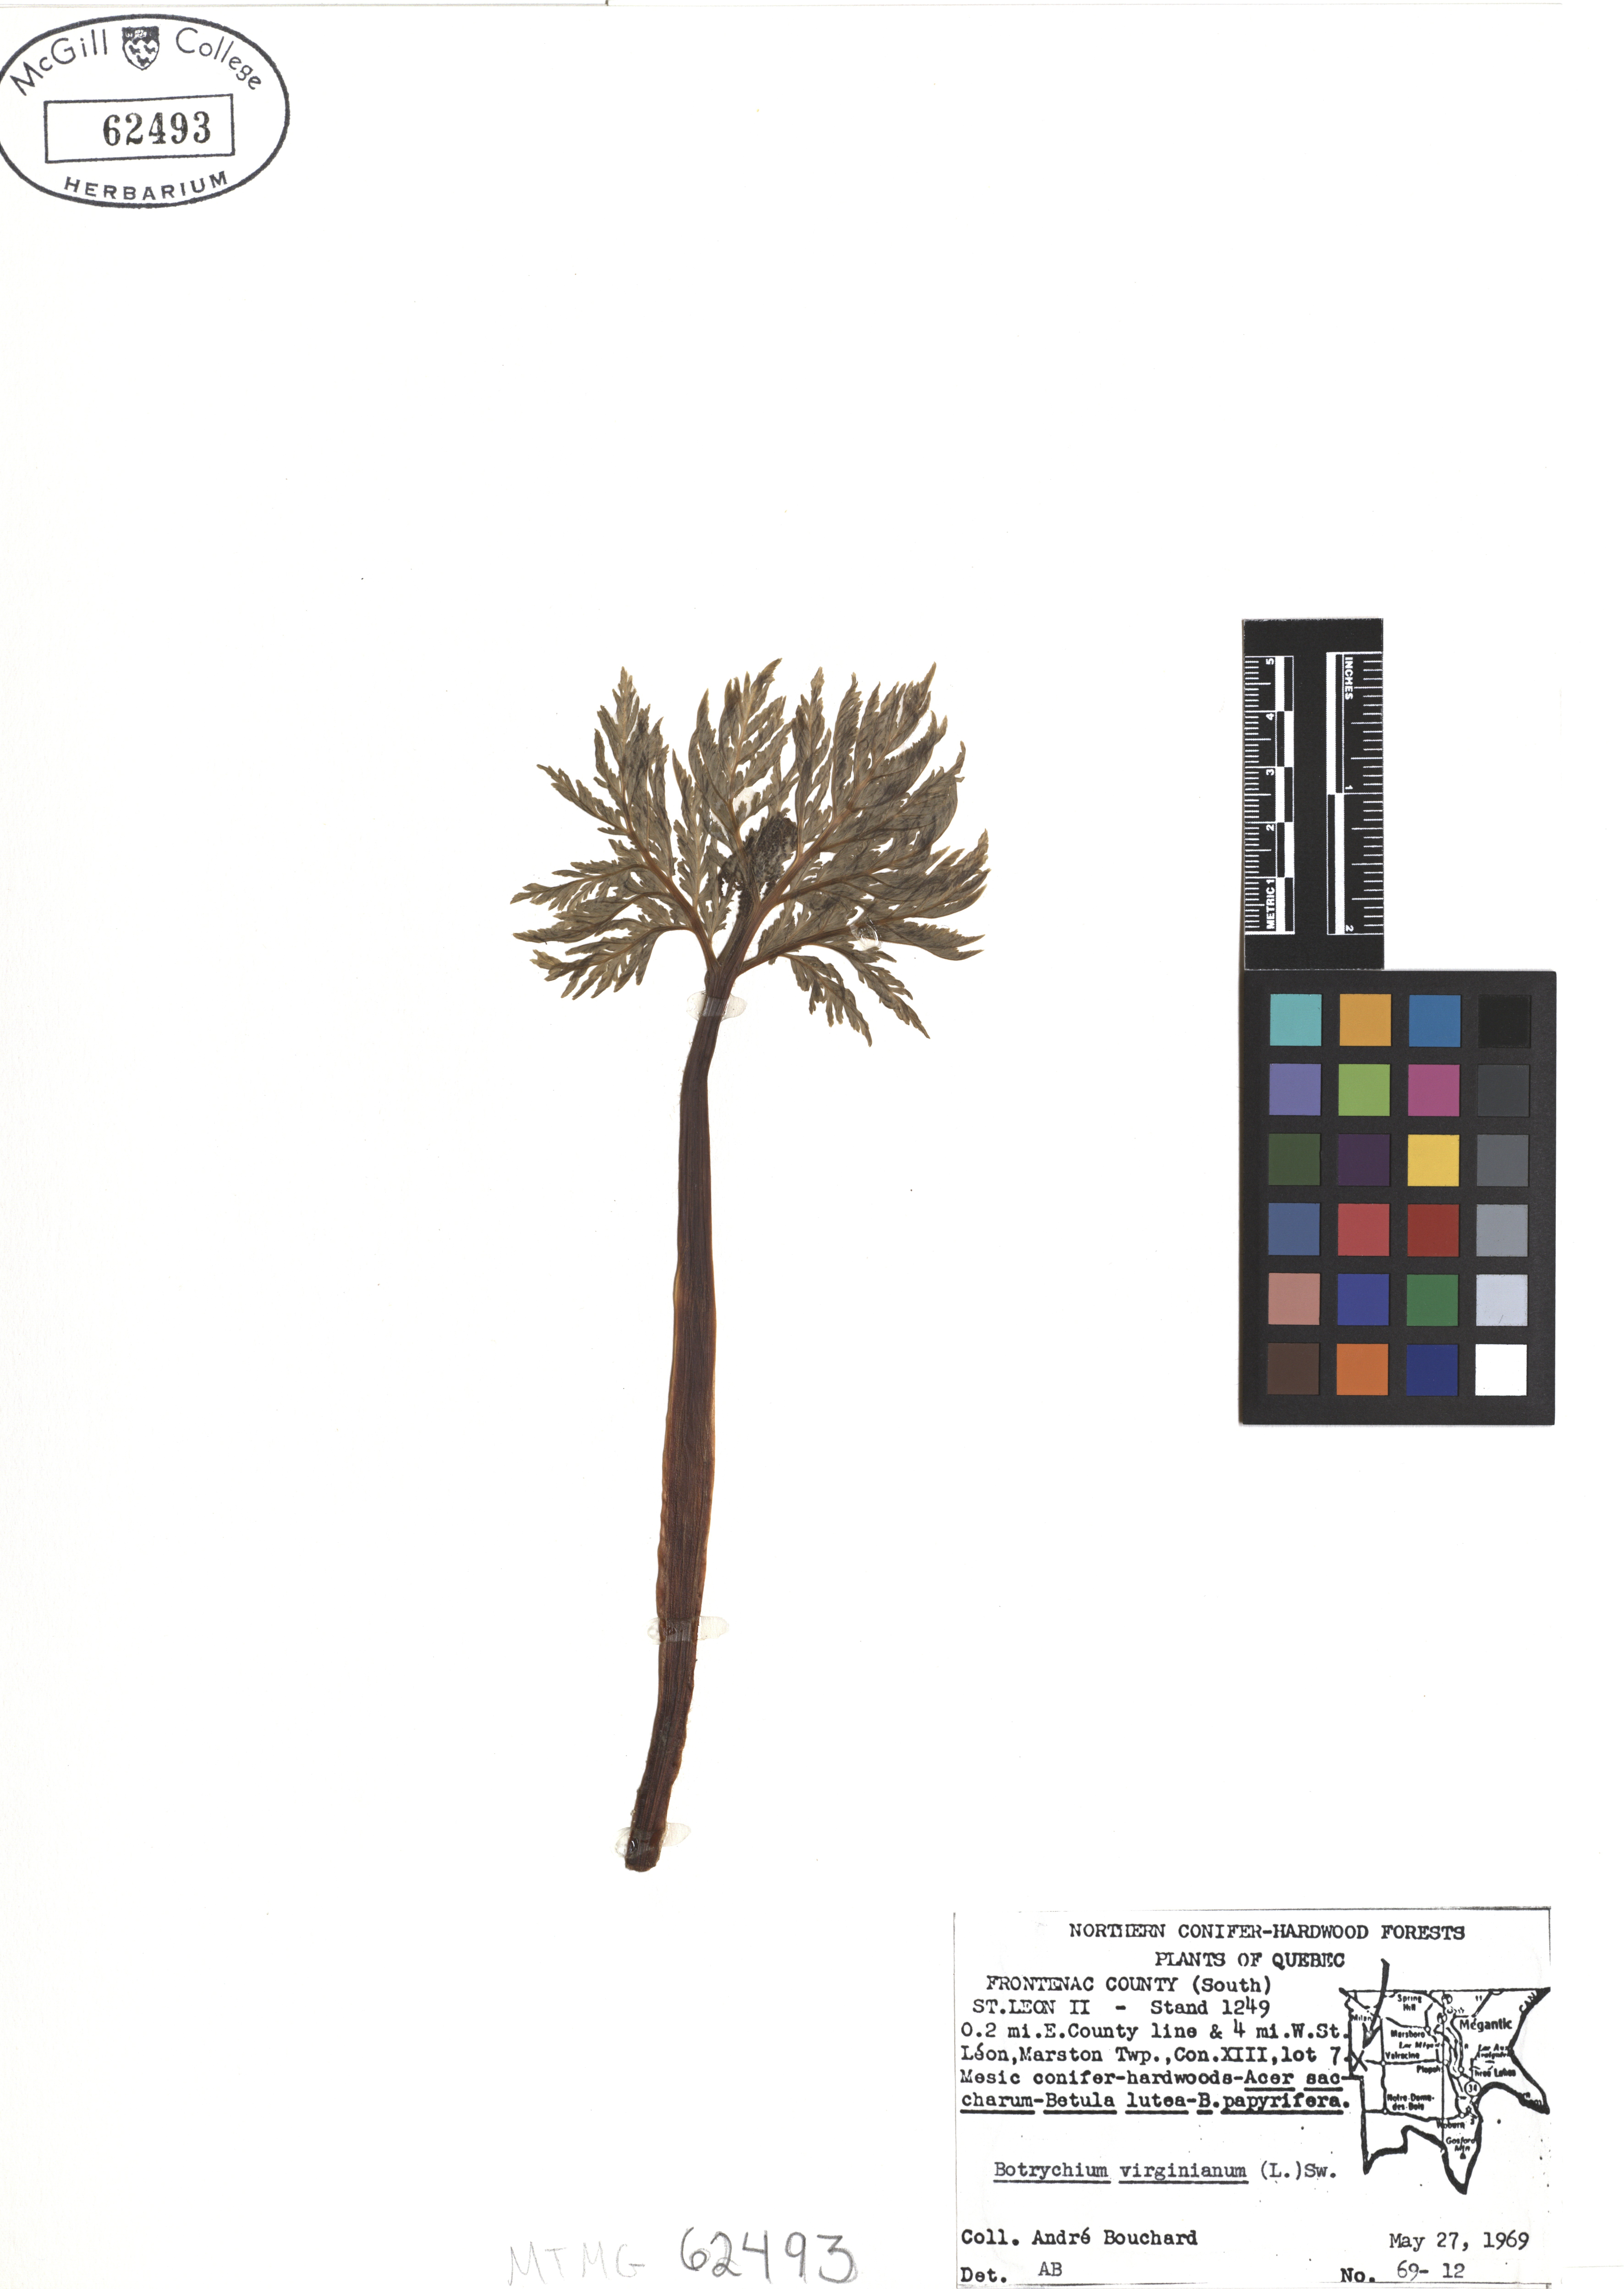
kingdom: Plantae
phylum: Tracheophyta
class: Polypodiopsida
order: Ophioglossales
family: Ophioglossaceae
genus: Botrypus
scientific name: Botrypus virginianus
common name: Common grapefern
